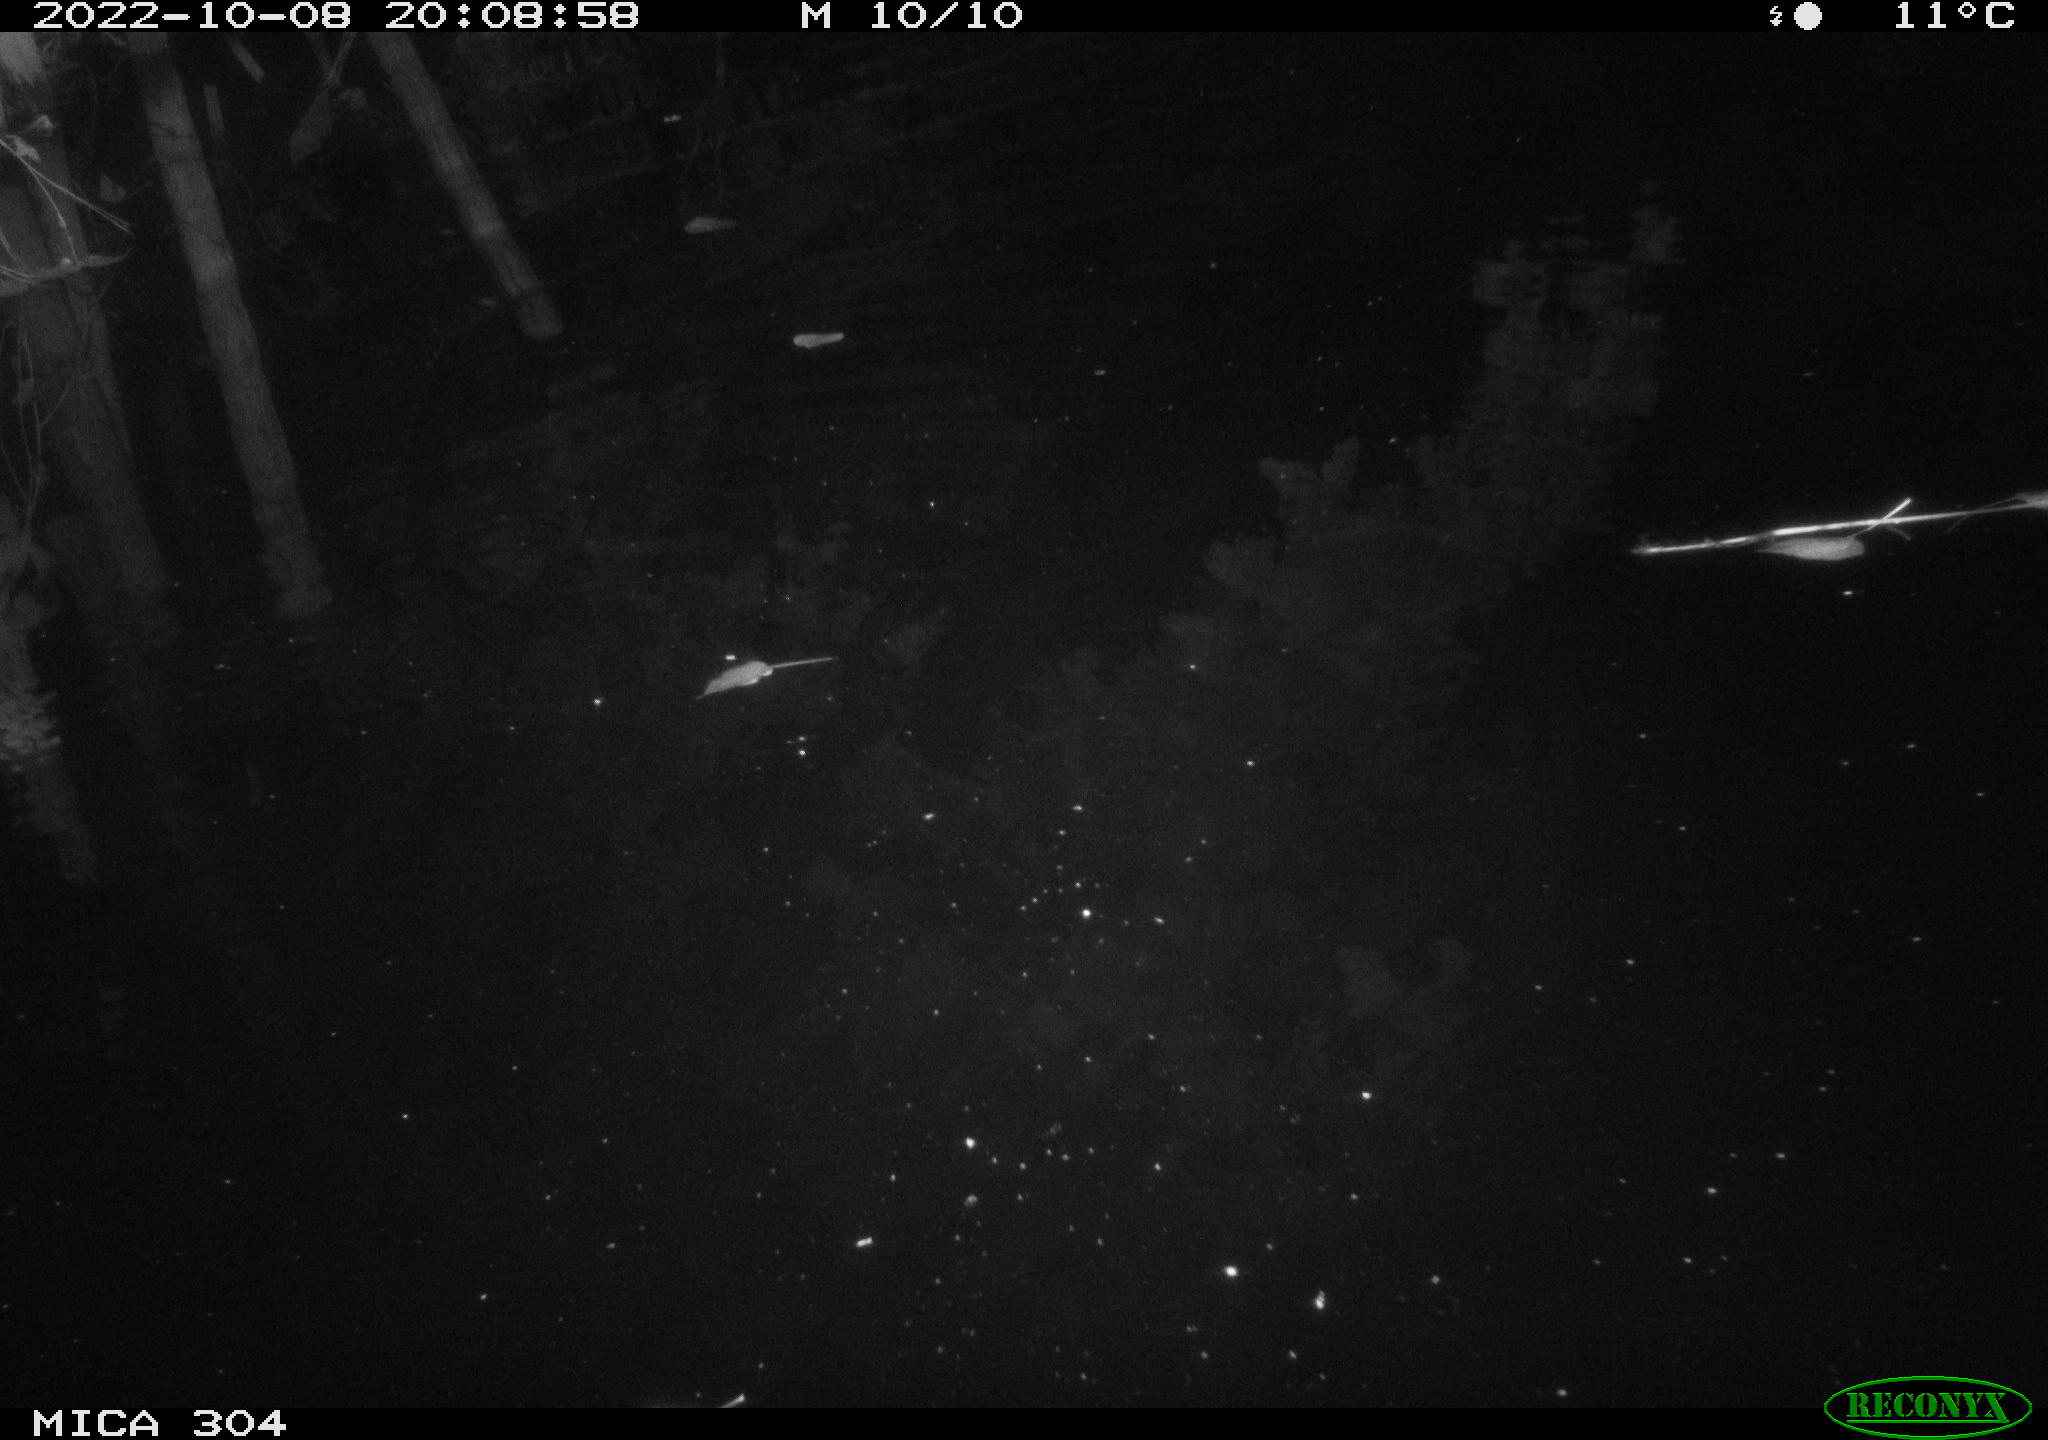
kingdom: Animalia
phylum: Chordata
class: Mammalia
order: Rodentia
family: Muridae
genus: Rattus
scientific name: Rattus norvegicus
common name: Brown rat
